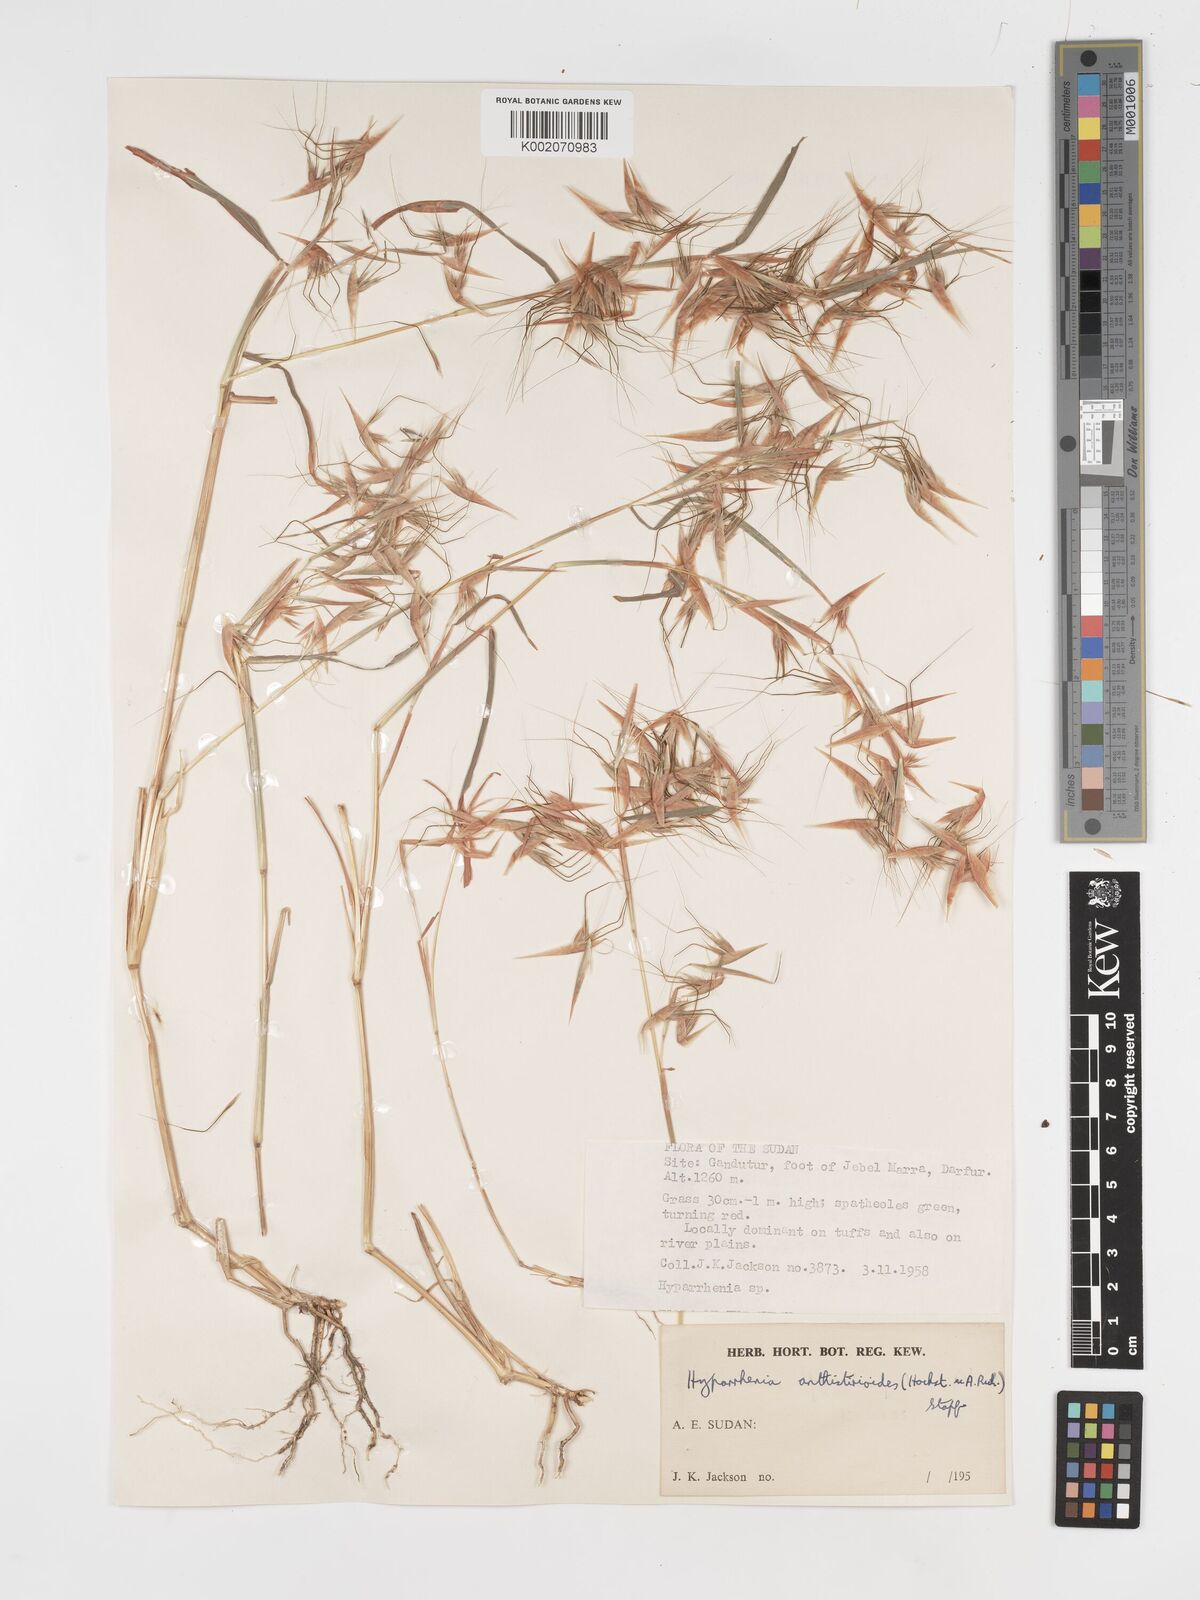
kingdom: Plantae
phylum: Tracheophyta
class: Liliopsida
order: Poales
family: Poaceae
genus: Hyparrhenia
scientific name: Hyparrhenia anthistirioides
